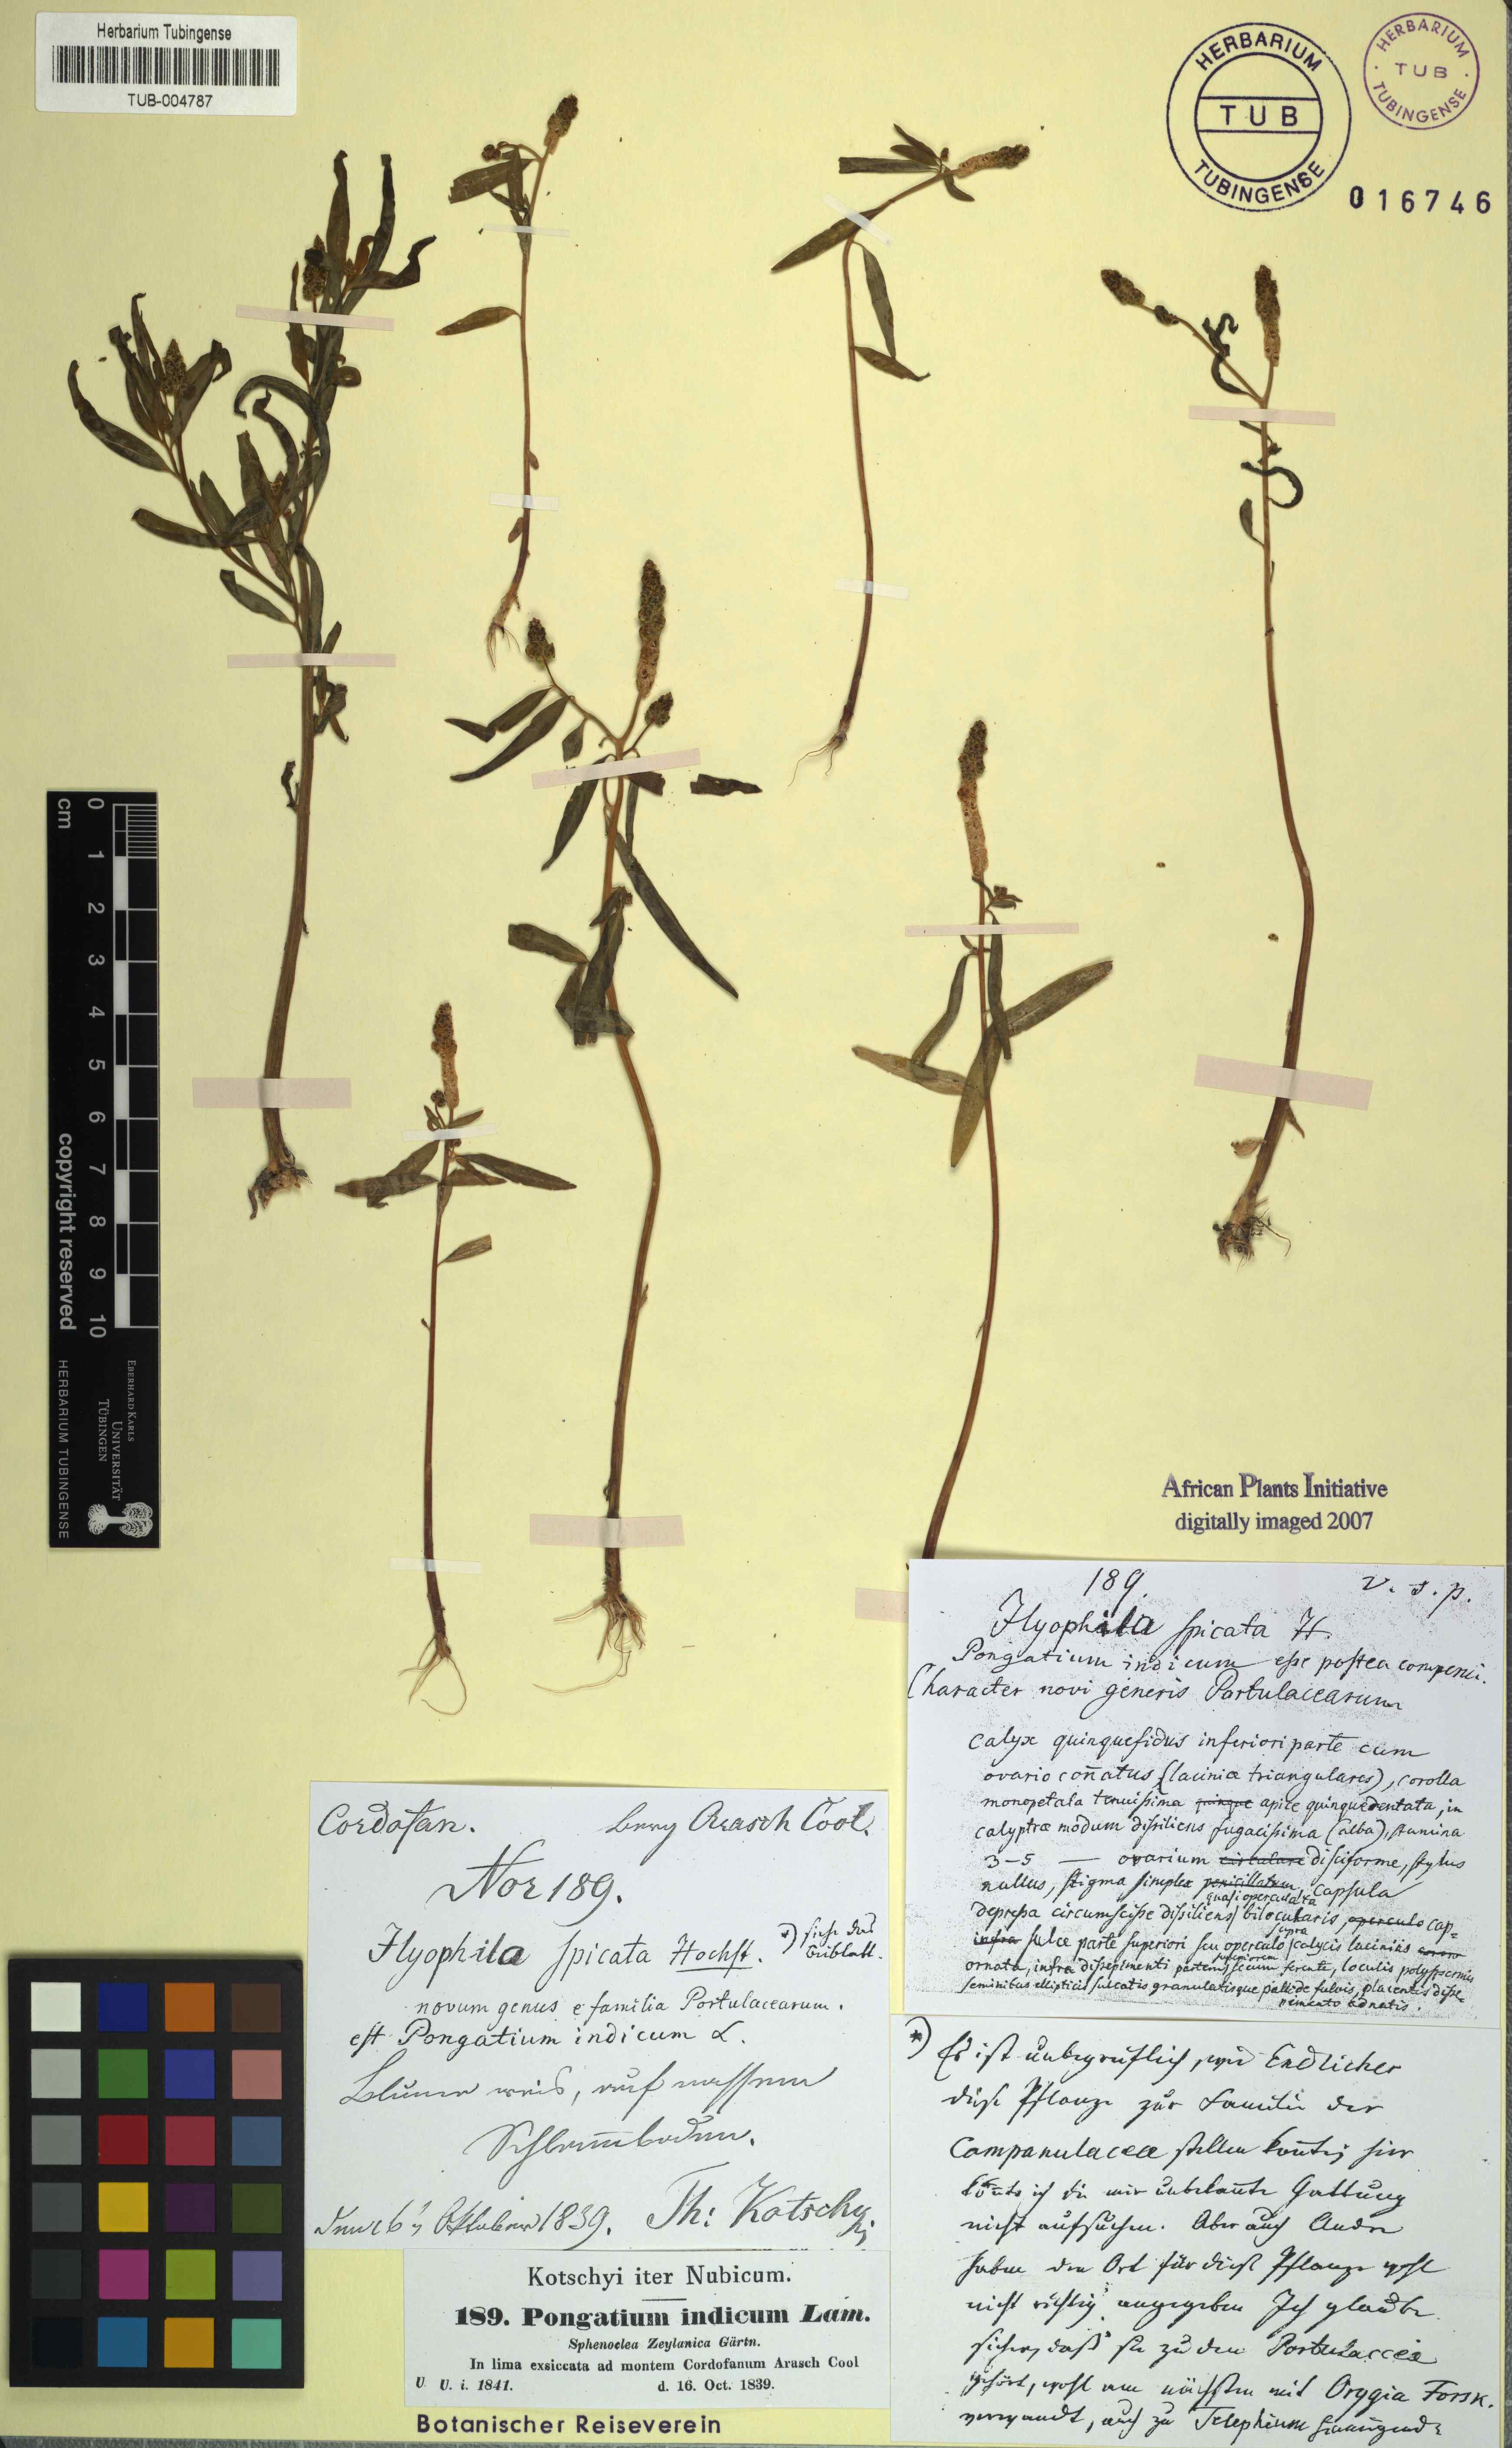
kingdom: Plantae
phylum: Tracheophyta
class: Magnoliopsida
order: Solanales
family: Sphenocleaceae
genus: Sphenoclea
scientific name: Sphenoclea zeylanica
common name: Chickenspike
